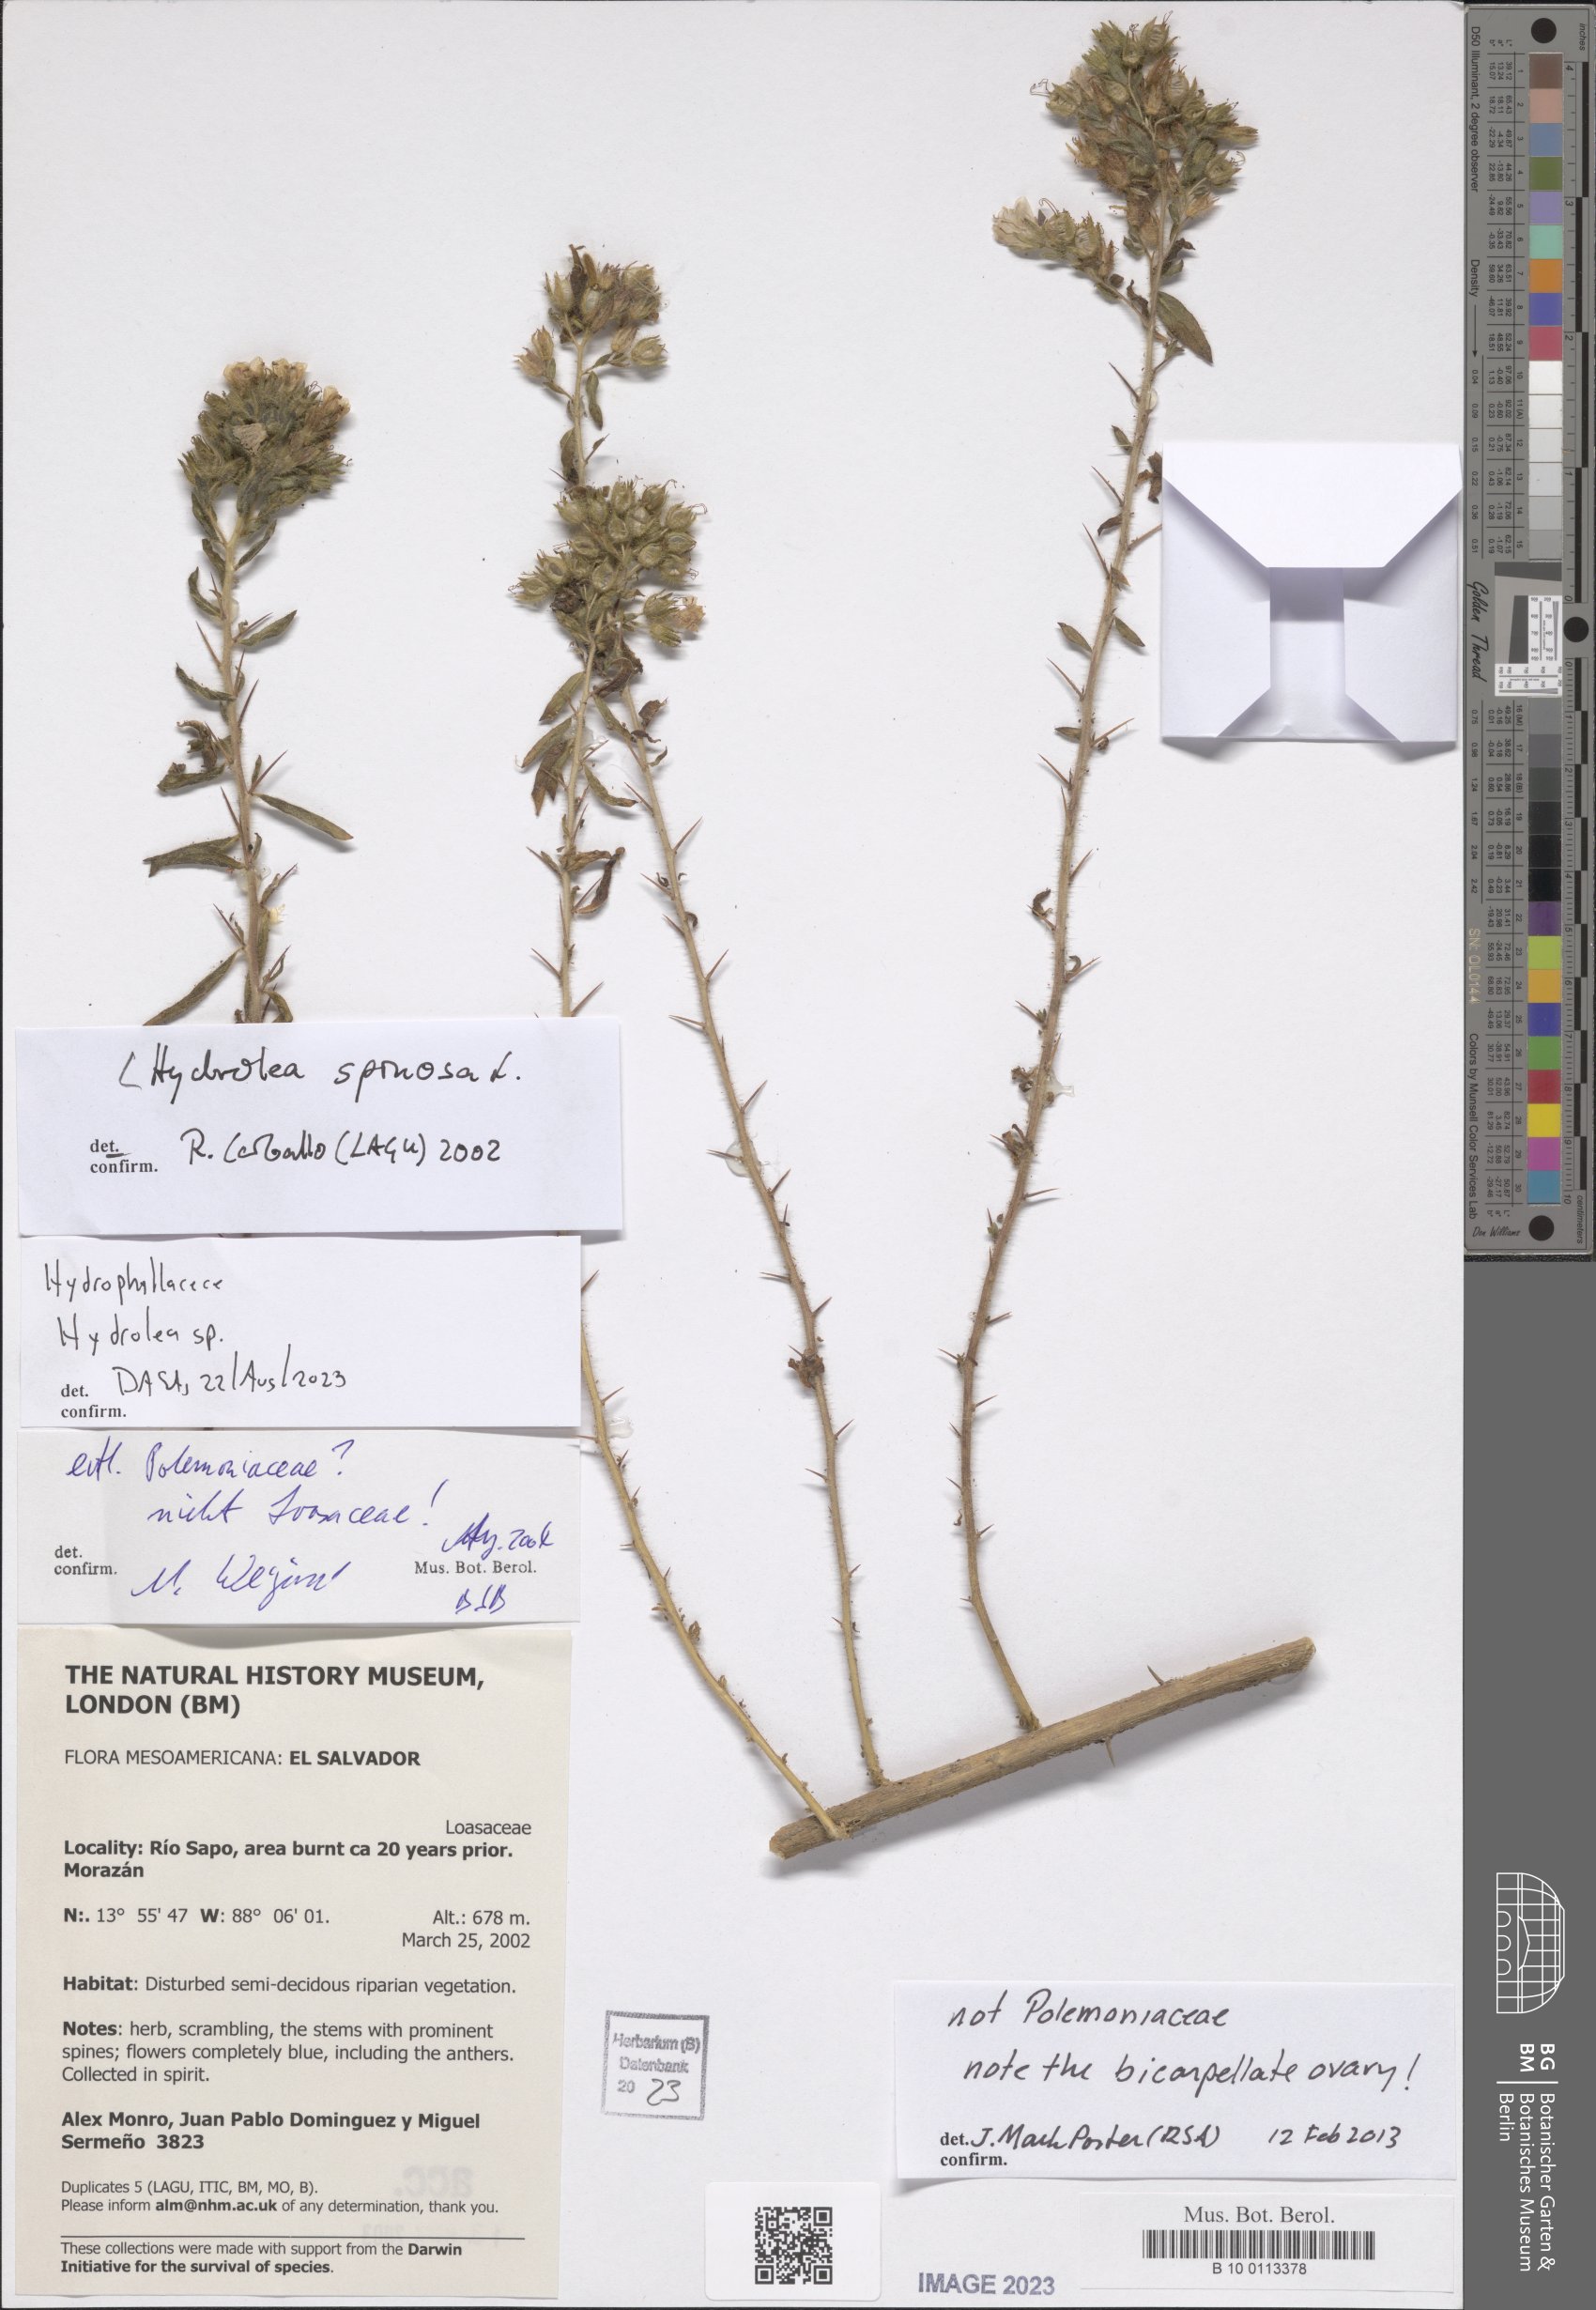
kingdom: Plantae
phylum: Tracheophyta
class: Magnoliopsida
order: Solanales
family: Hydroleaceae
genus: Hydrolea
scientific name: Hydrolea spinosa
